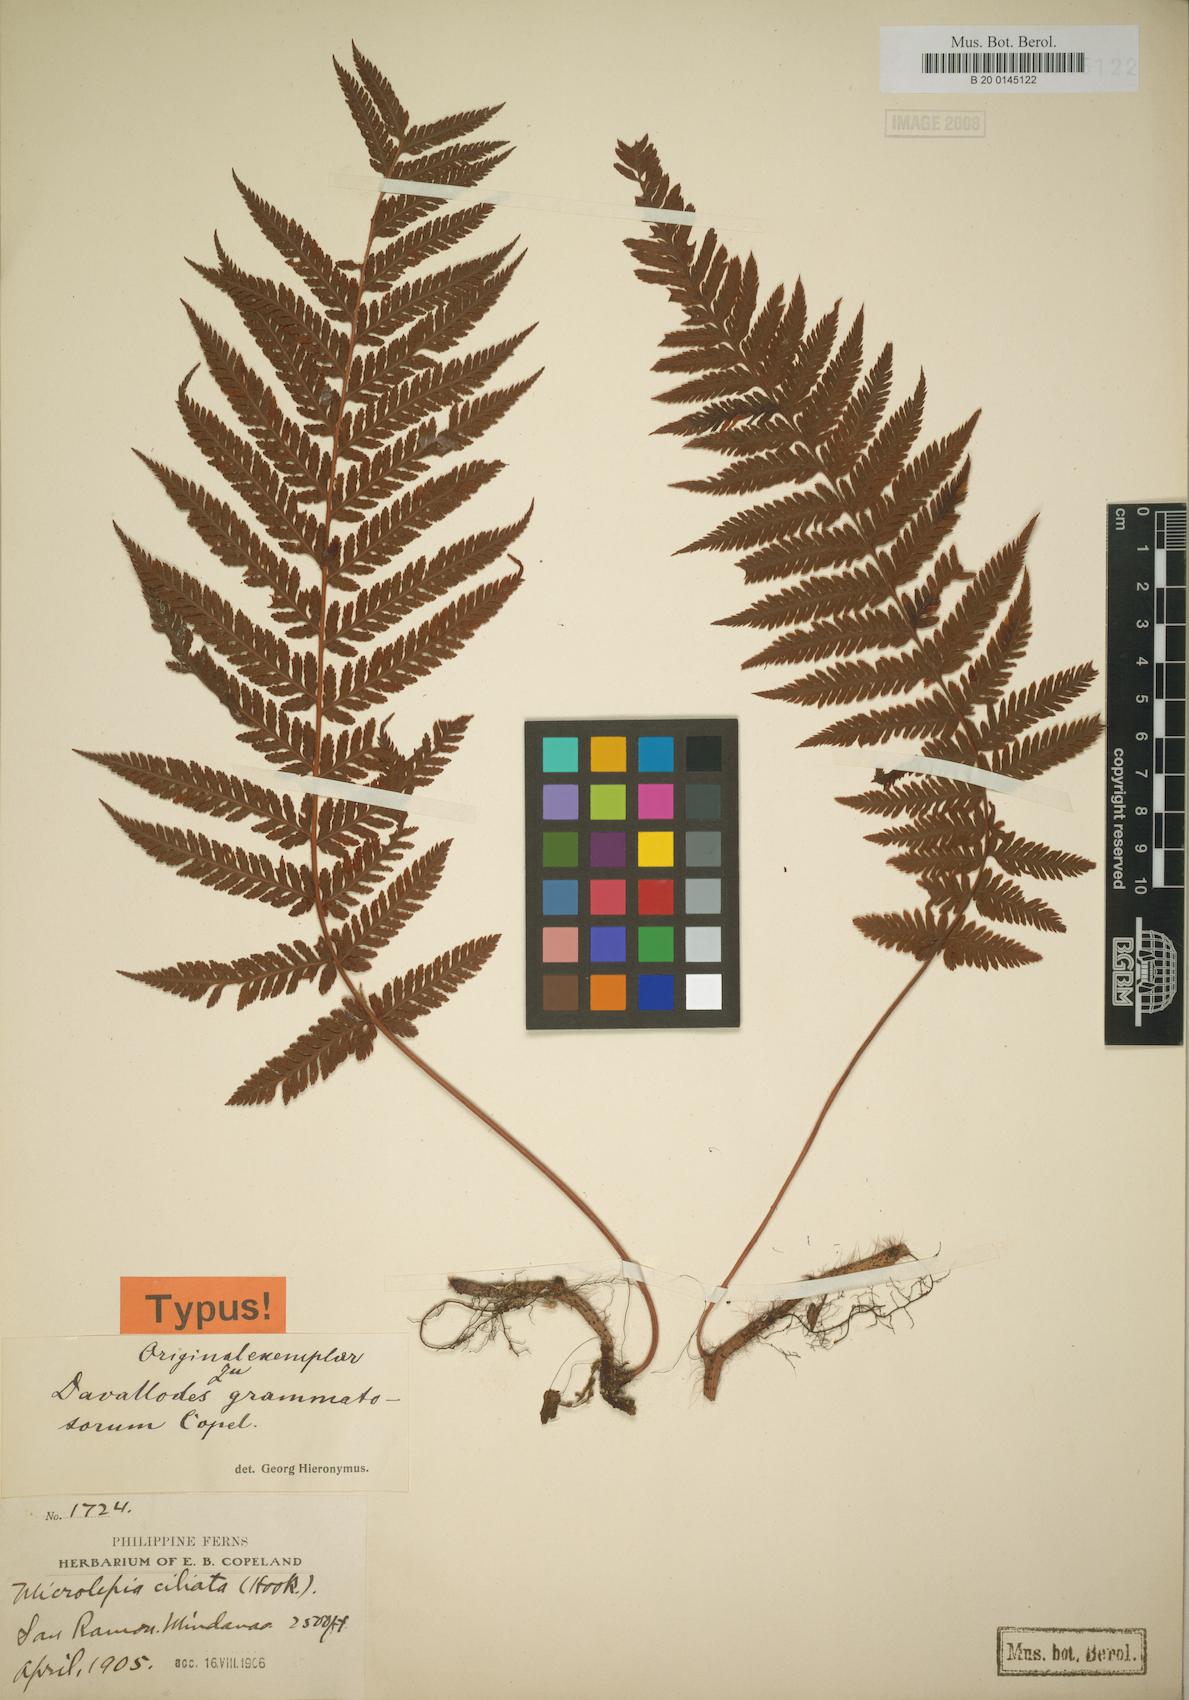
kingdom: Plantae
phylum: Tracheophyta
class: Polypodiopsida
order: Polypodiales
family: Davalliaceae
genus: Davallodes
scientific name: Davallodes hirsutum
